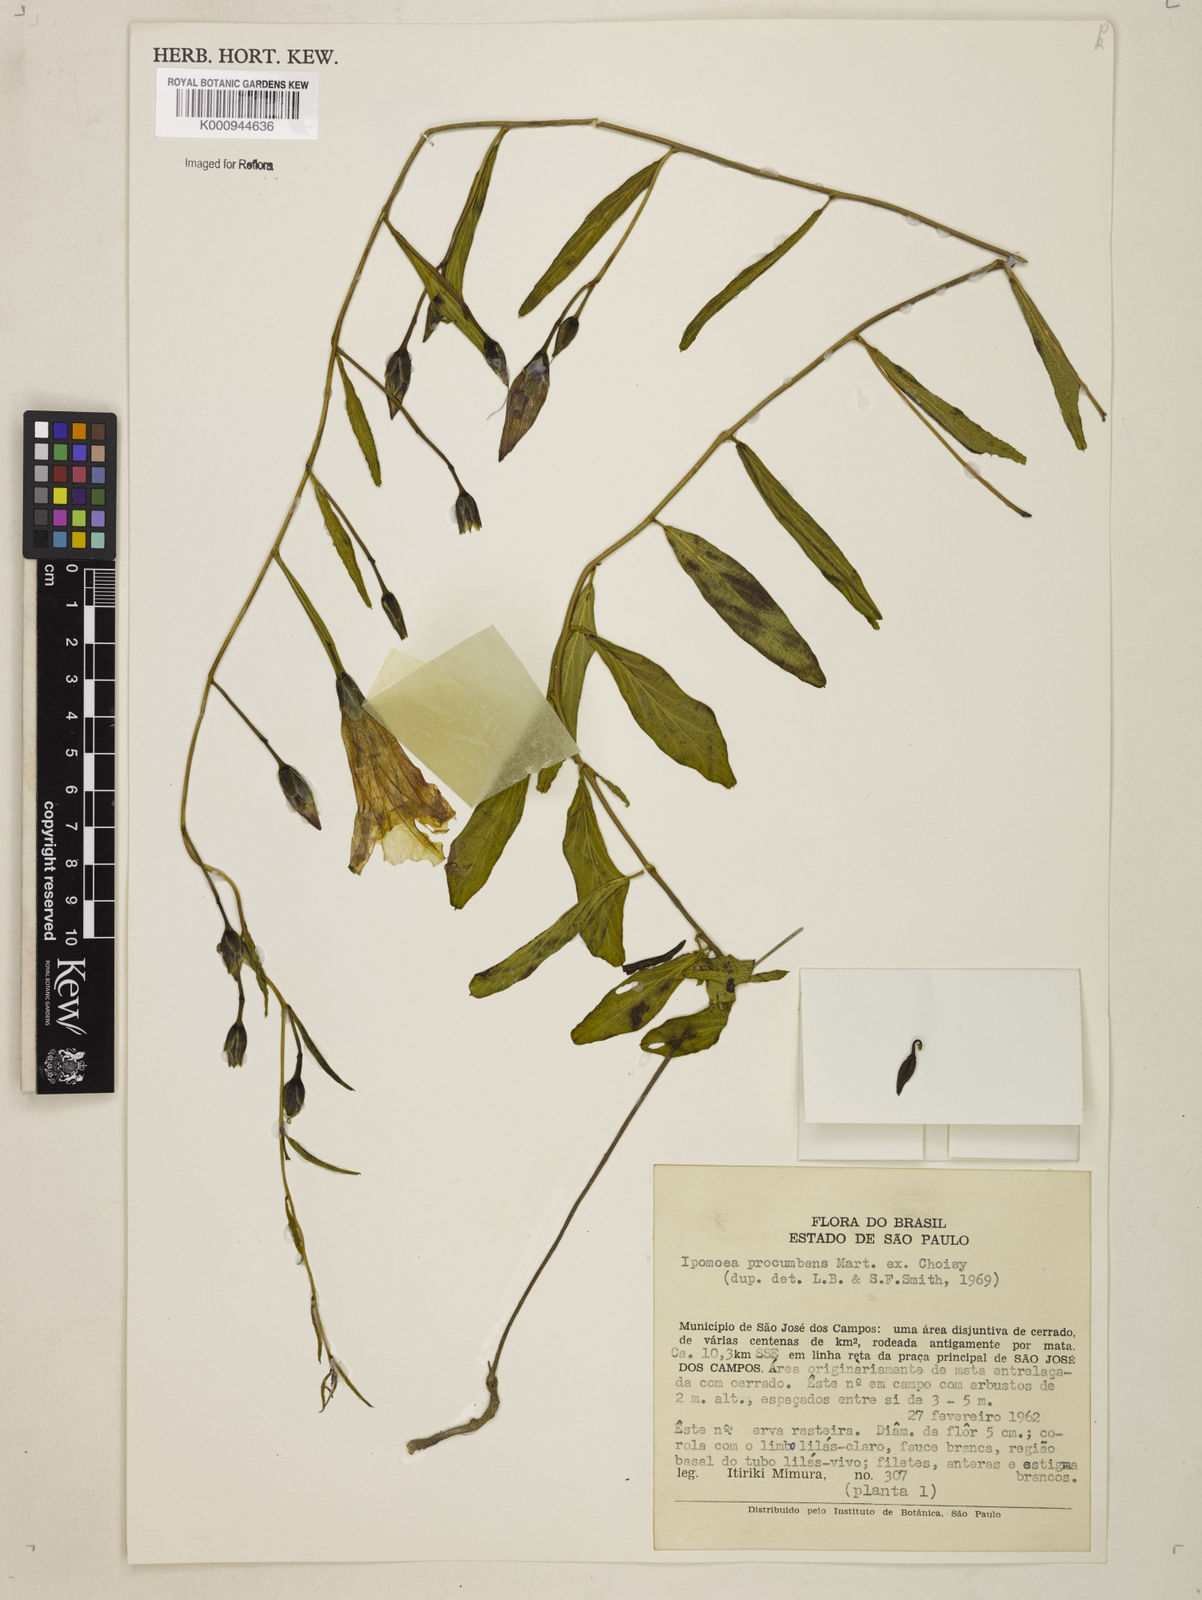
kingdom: Plantae
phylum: Tracheophyta
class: Magnoliopsida
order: Solanales
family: Convolvulaceae
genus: Ipomoea
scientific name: Ipomoea procumbens
